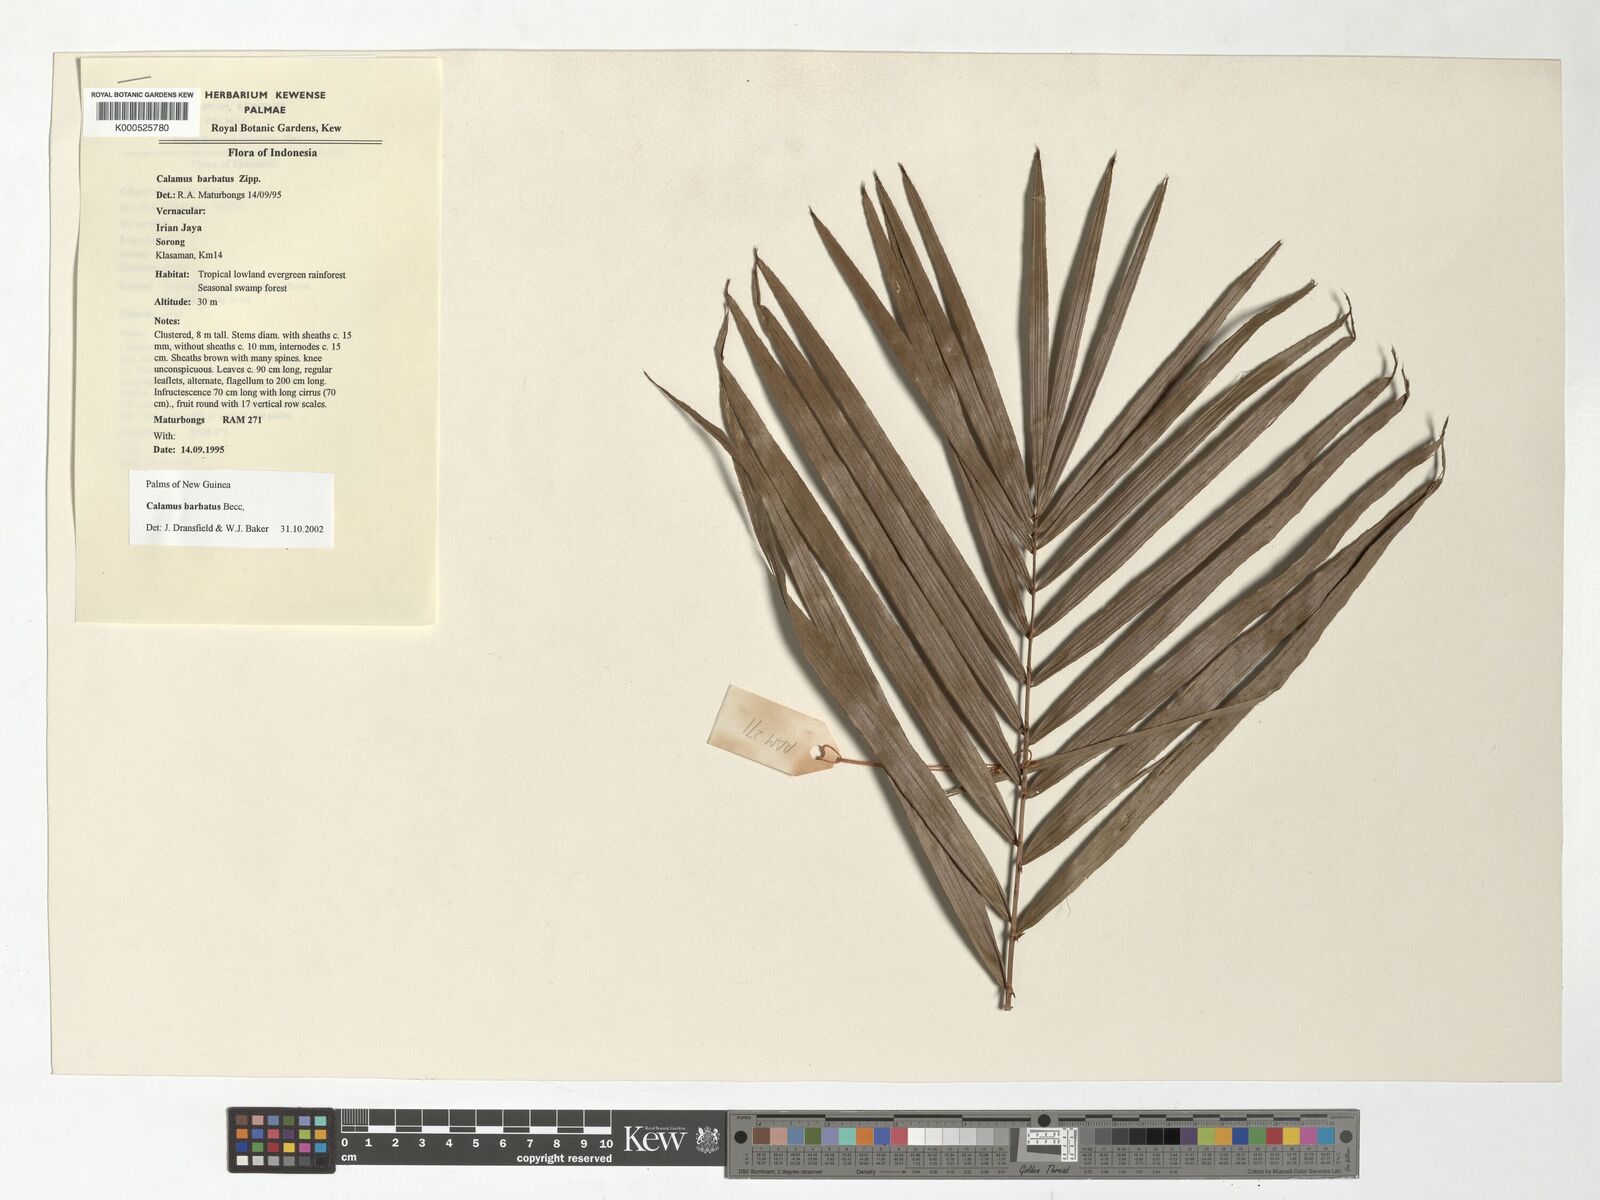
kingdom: Plantae
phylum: Tracheophyta
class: Liliopsida
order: Arecales
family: Arecaceae
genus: Calamus
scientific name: Calamus
